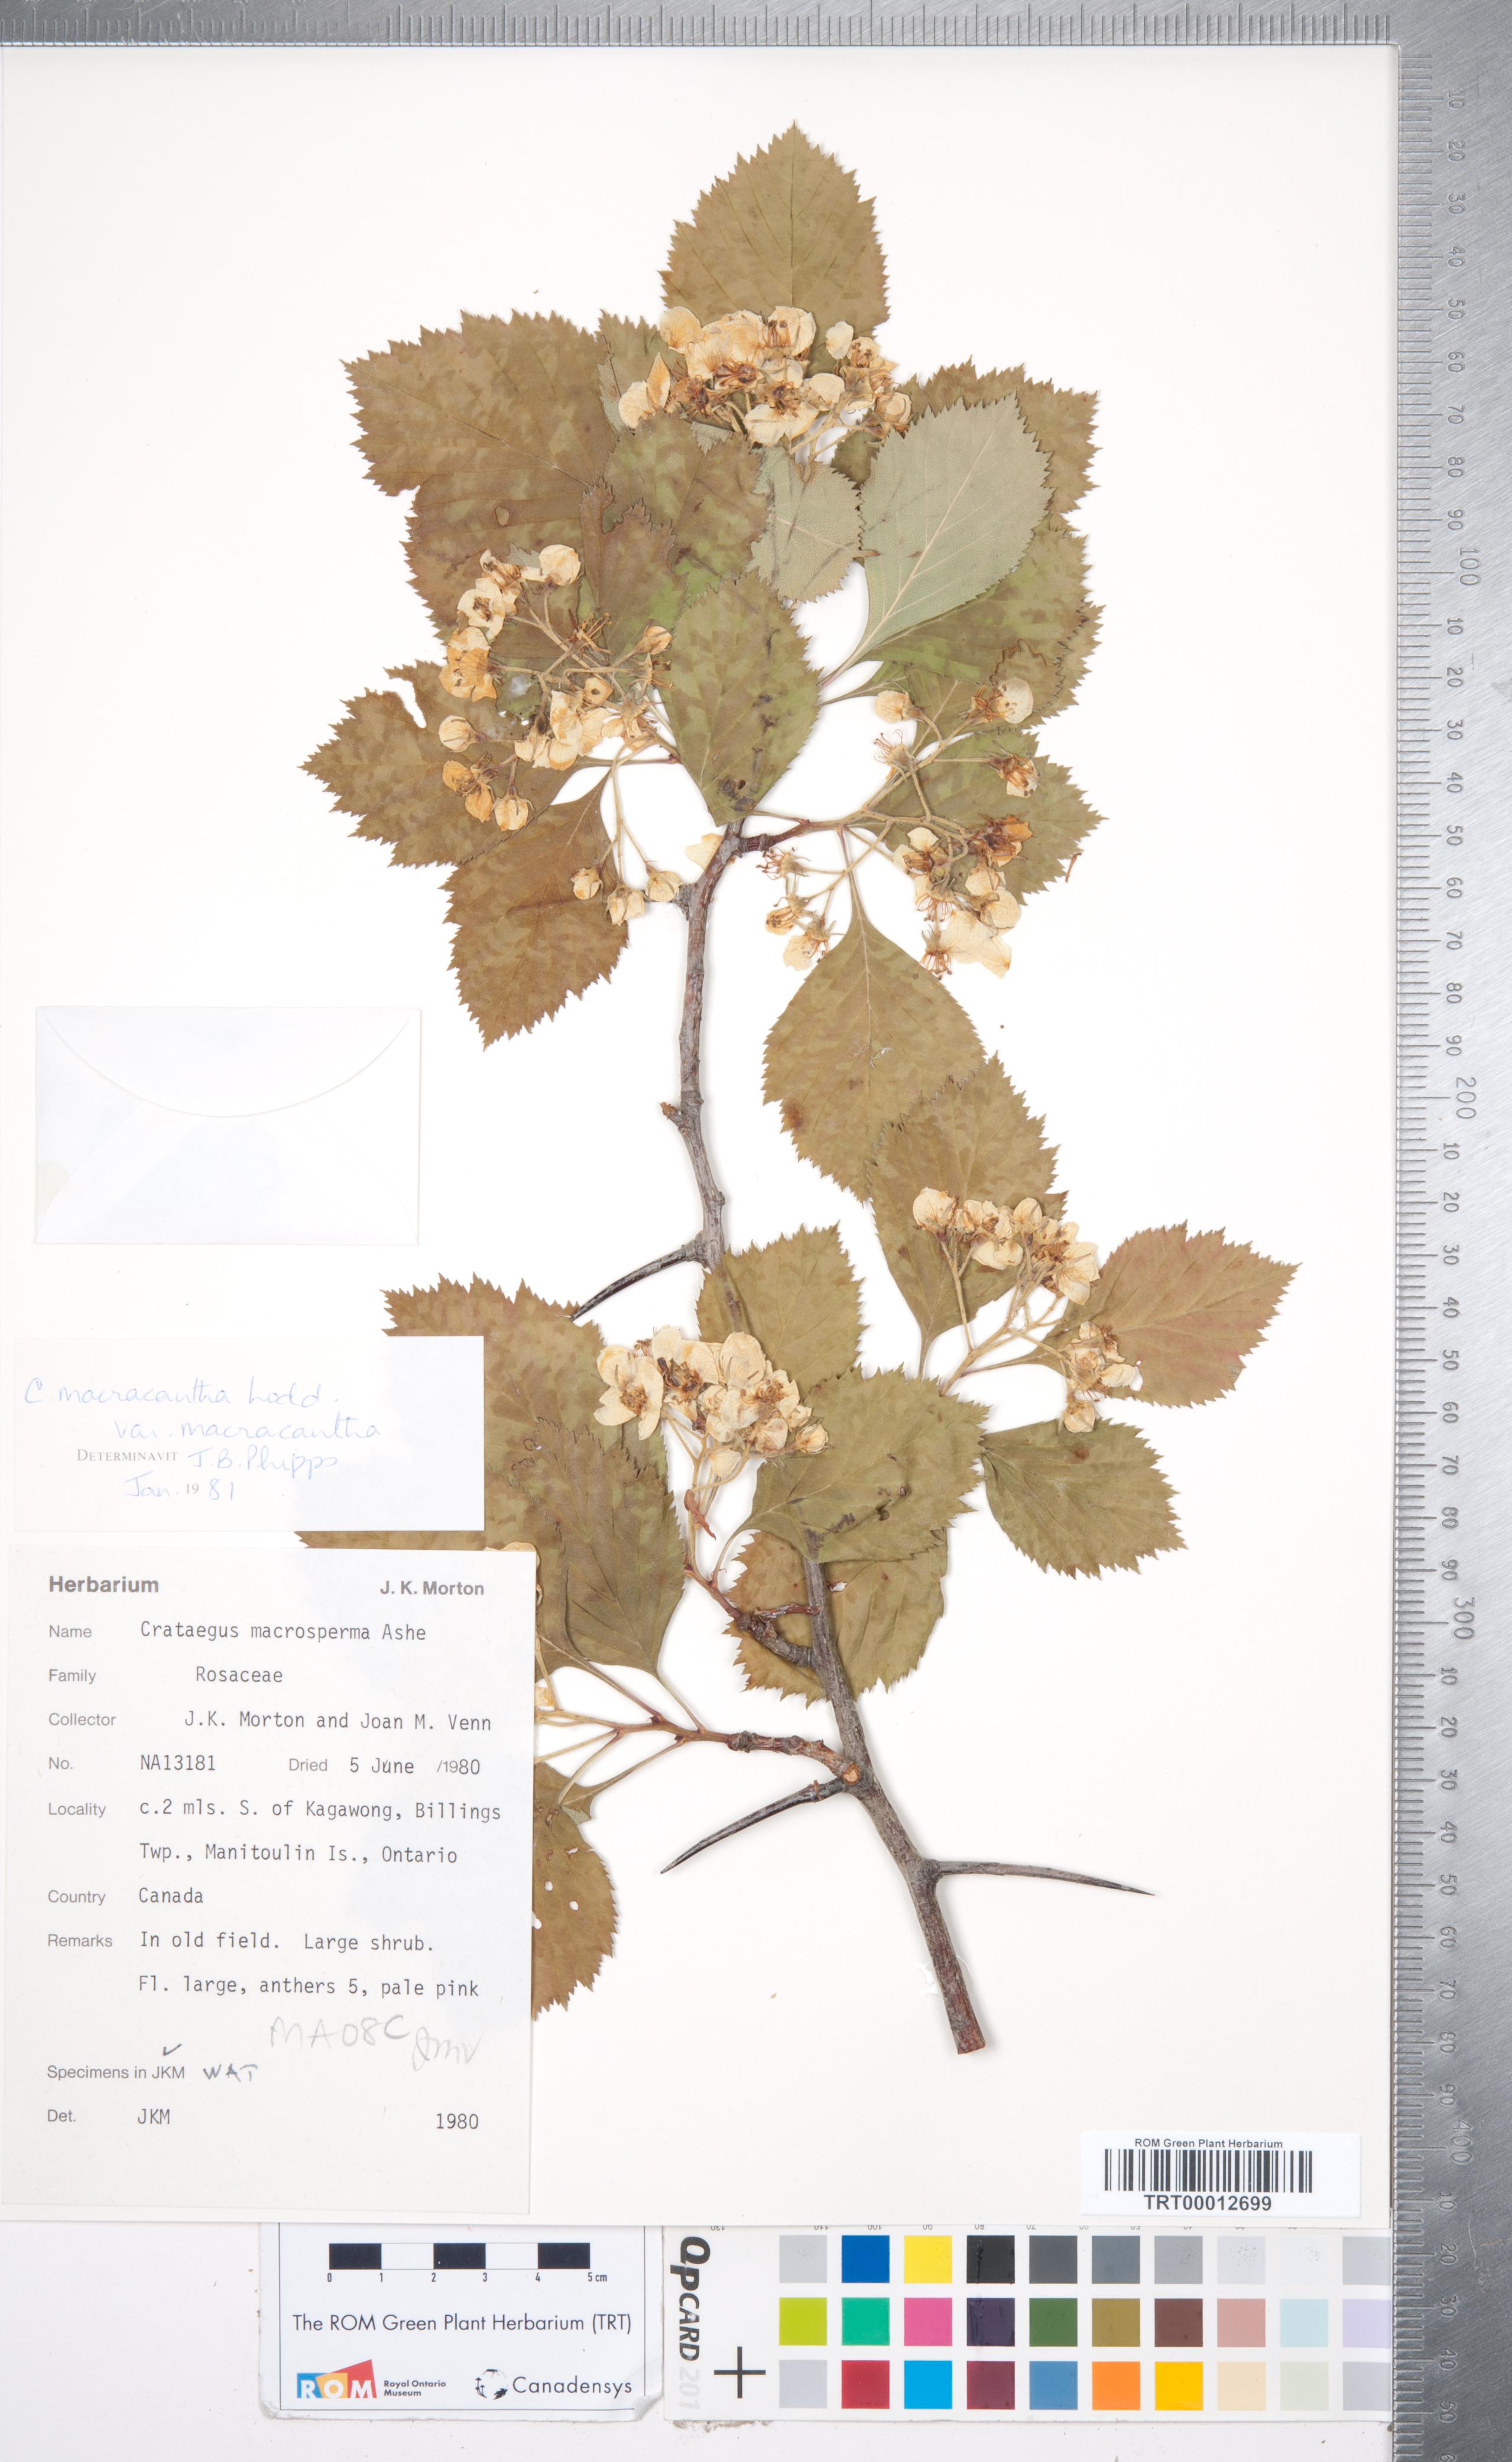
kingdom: Plantae
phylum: Tracheophyta
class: Magnoliopsida
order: Rosales
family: Rosaceae
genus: Crataegus
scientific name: Crataegus macracantha
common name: Large-thorn hawthorn
